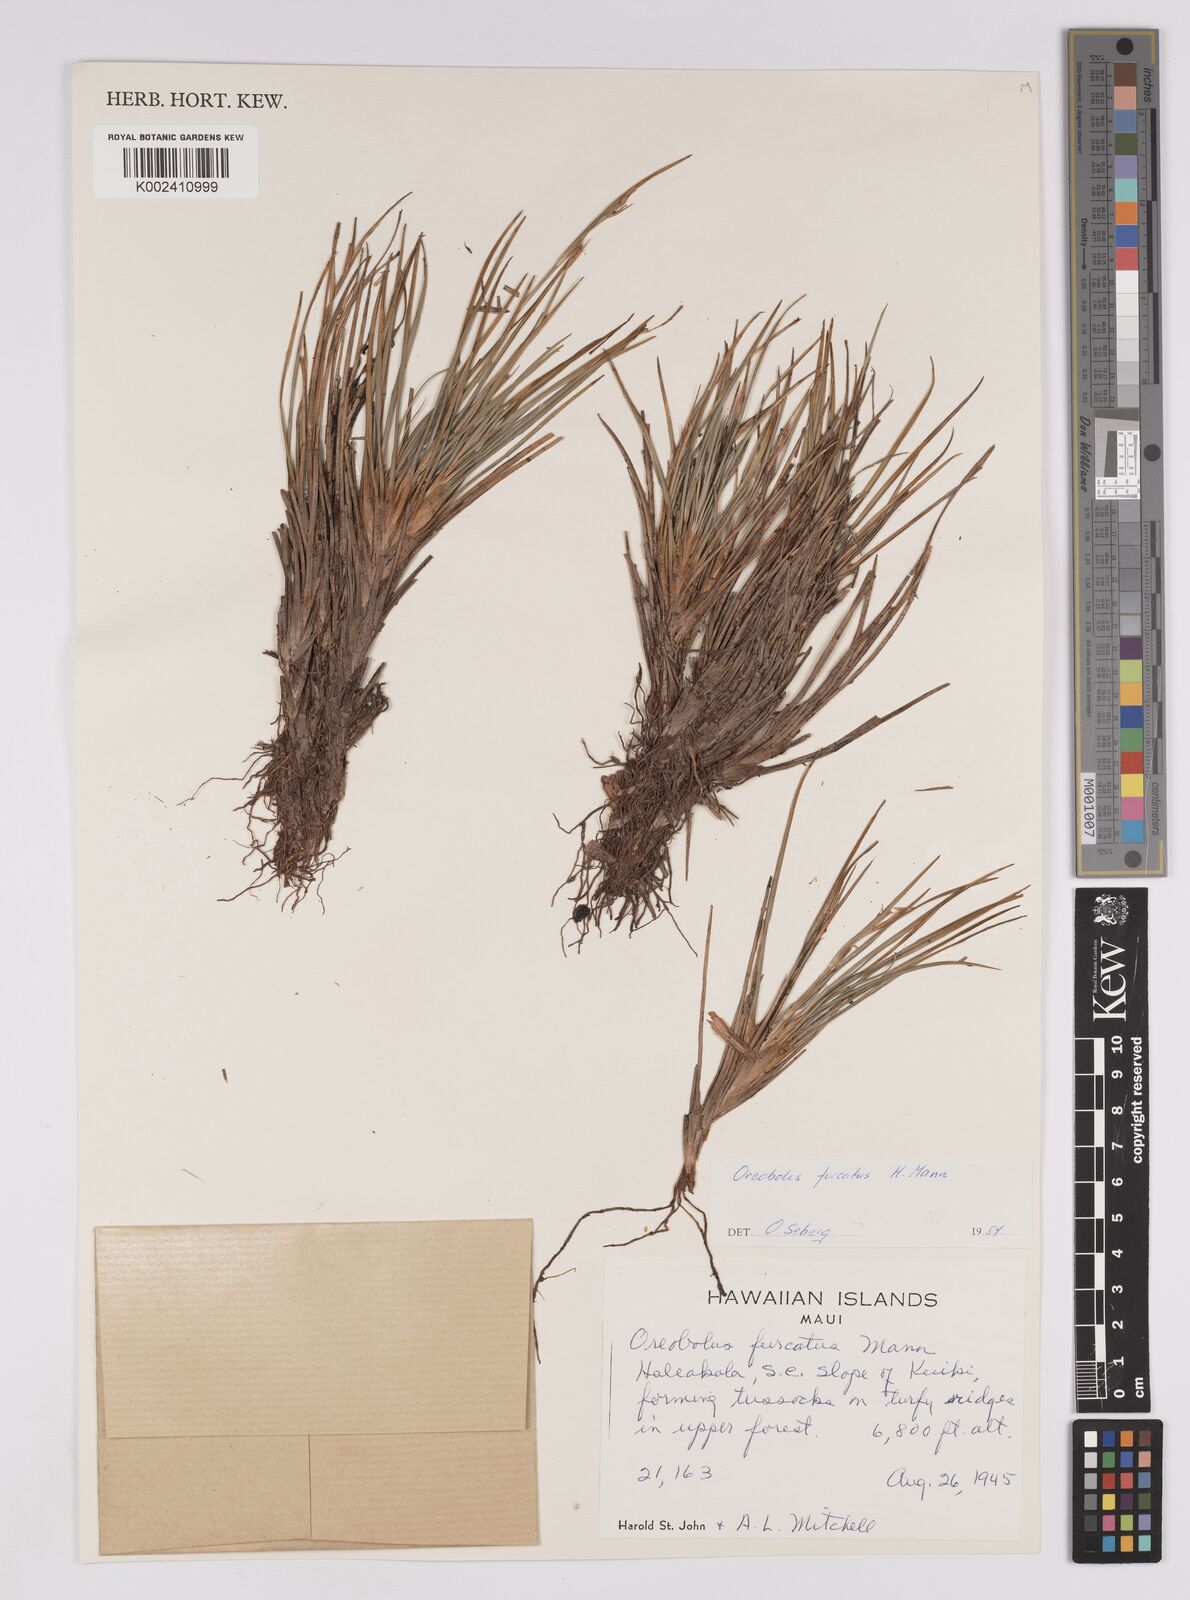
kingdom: Plantae
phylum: Tracheophyta
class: Liliopsida
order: Poales
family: Cyperaceae
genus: Oreobolus
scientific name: Oreobolus furcatus
